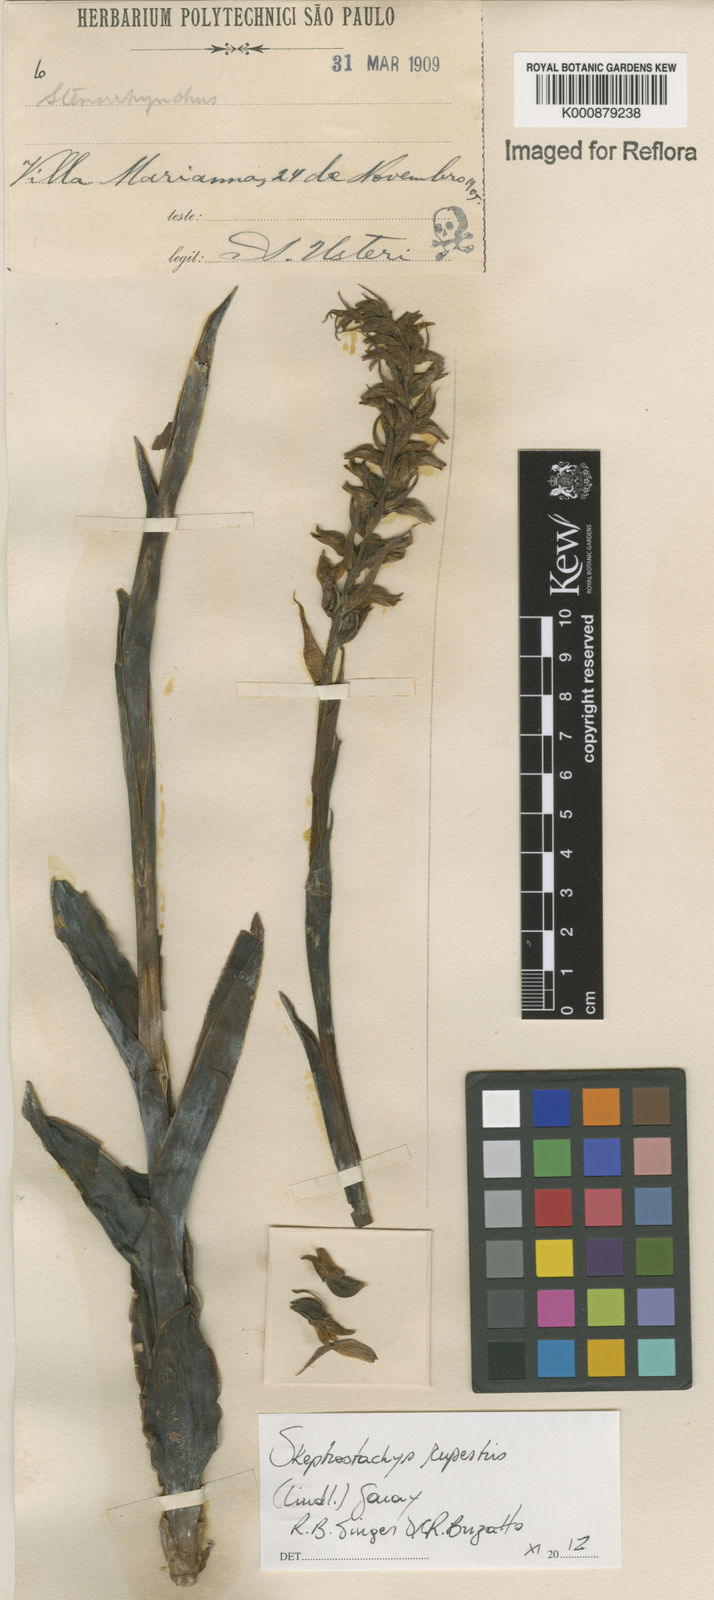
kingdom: Plantae
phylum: Tracheophyta
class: Liliopsida
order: Asparagales
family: Orchidaceae
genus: Skeptrostachys
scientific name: Skeptrostachys rupestris
